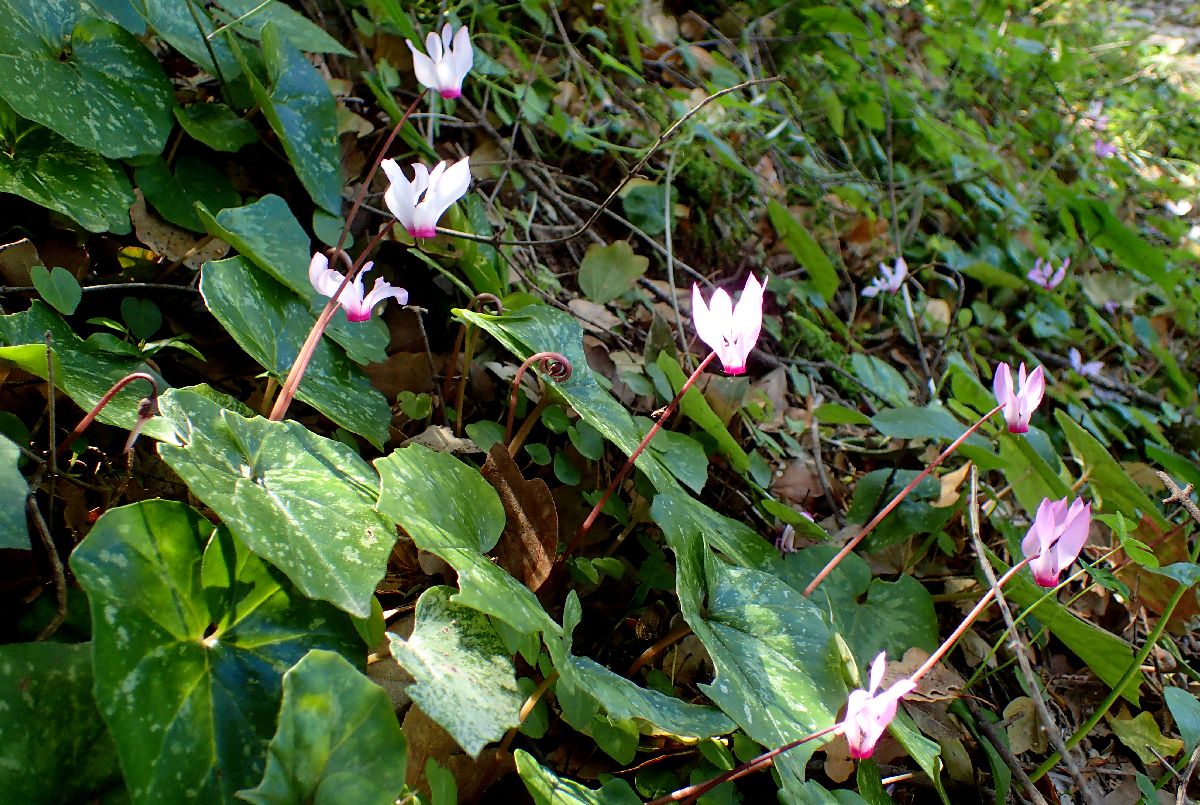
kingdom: Plantae
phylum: Tracheophyta
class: Magnoliopsida
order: Ericales
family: Primulaceae
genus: Cyclamen
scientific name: Cyclamen repandum
